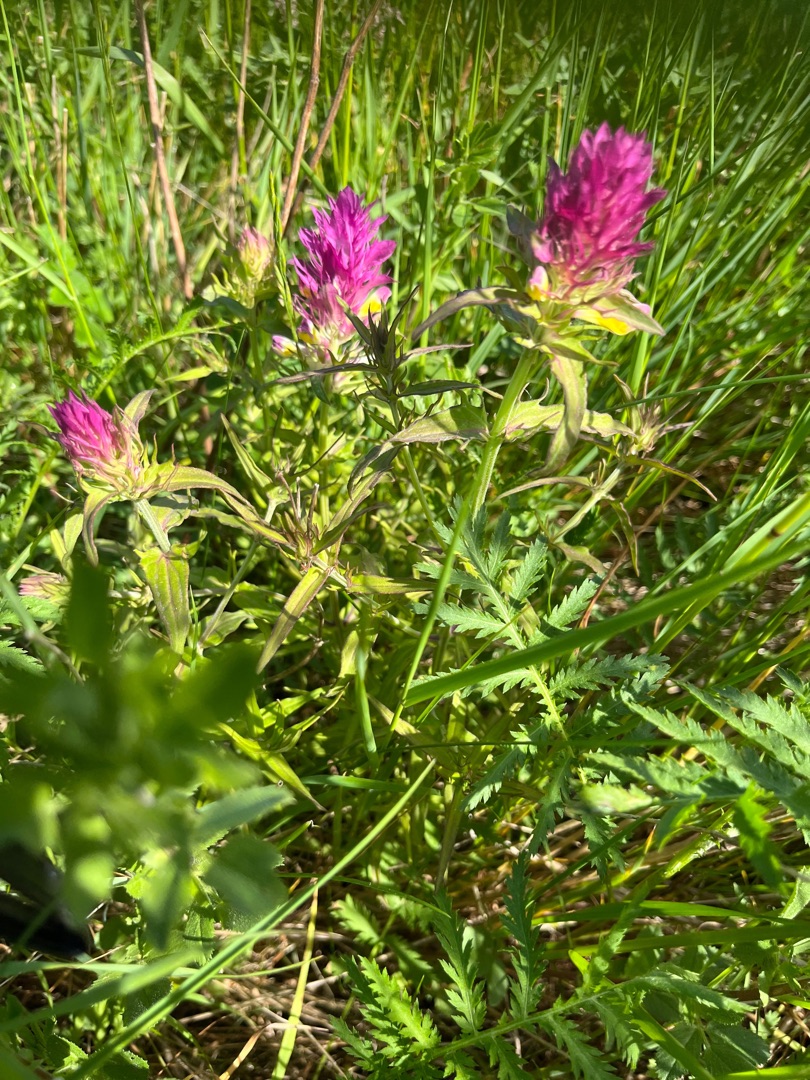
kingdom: Plantae
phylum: Tracheophyta
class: Magnoliopsida
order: Lamiales
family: Orobanchaceae
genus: Melampyrum
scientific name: Melampyrum arvense
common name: Ager-kohvede
